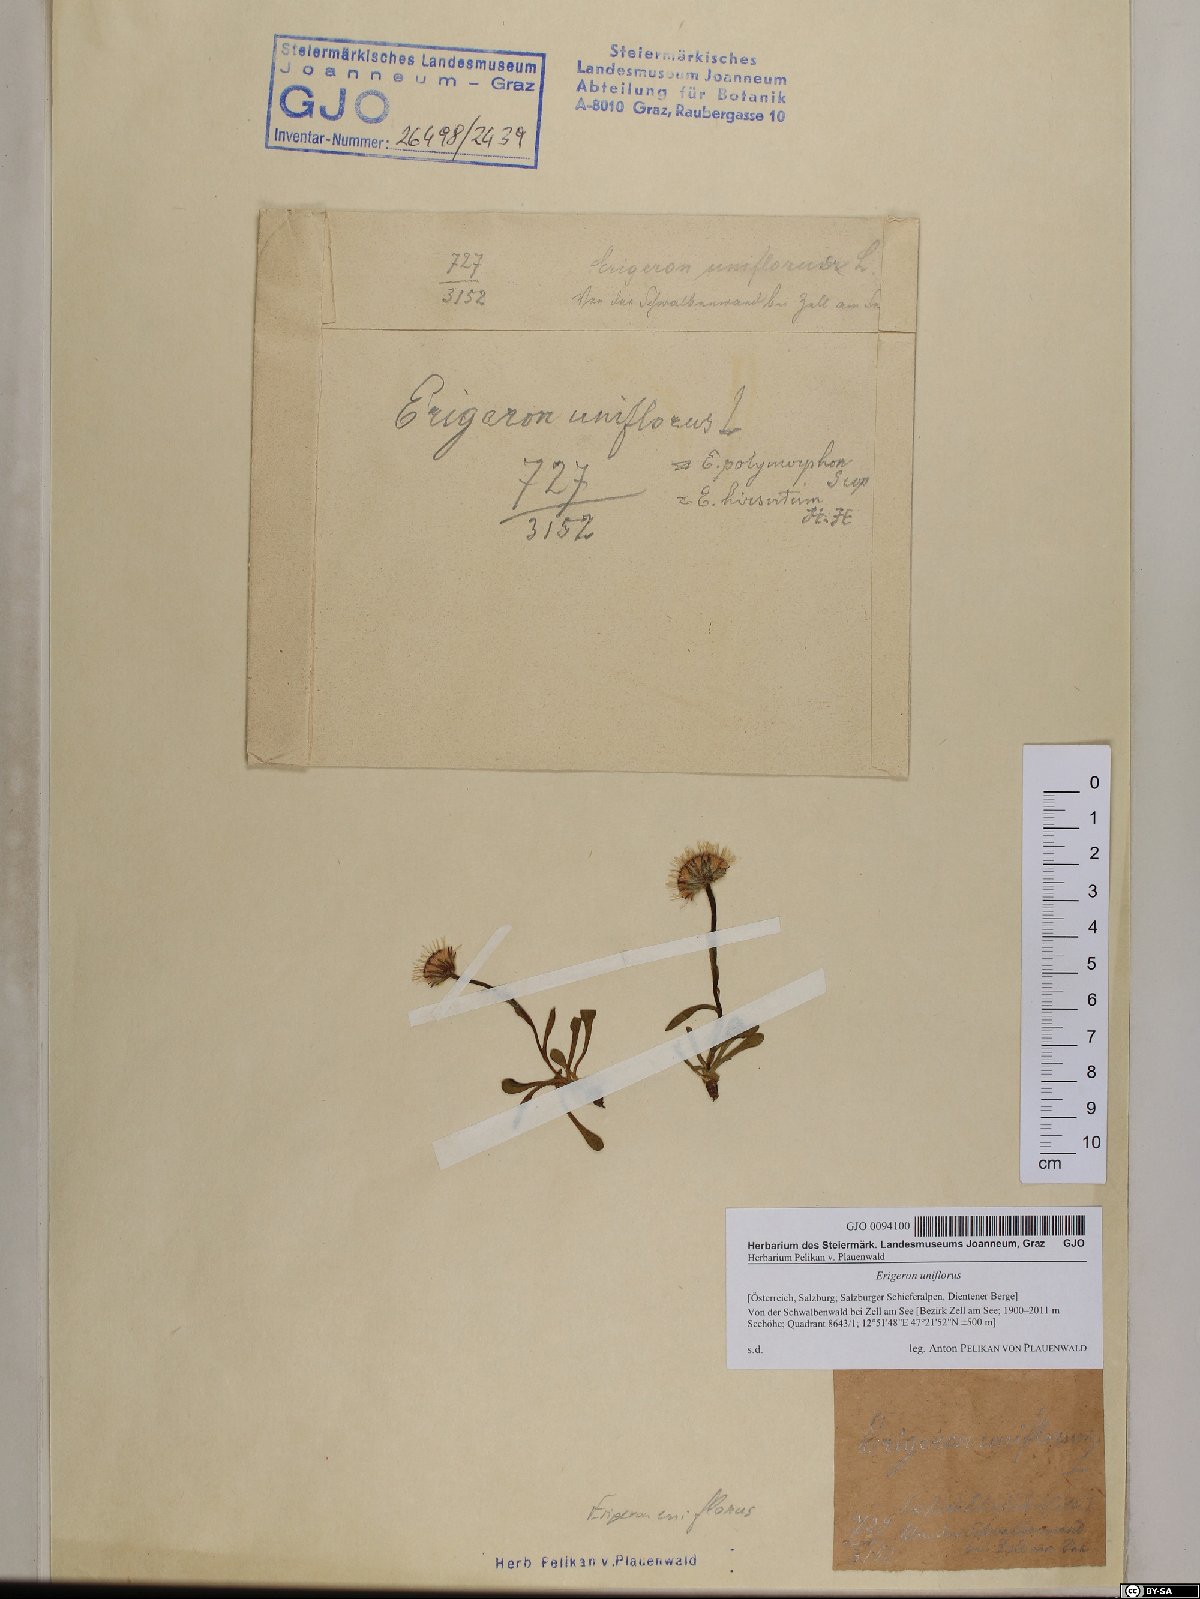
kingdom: Plantae
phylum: Tracheophyta
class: Magnoliopsida
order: Asterales
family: Asteraceae
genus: Erigeron
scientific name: Erigeron uniflorus
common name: Northern daisy
